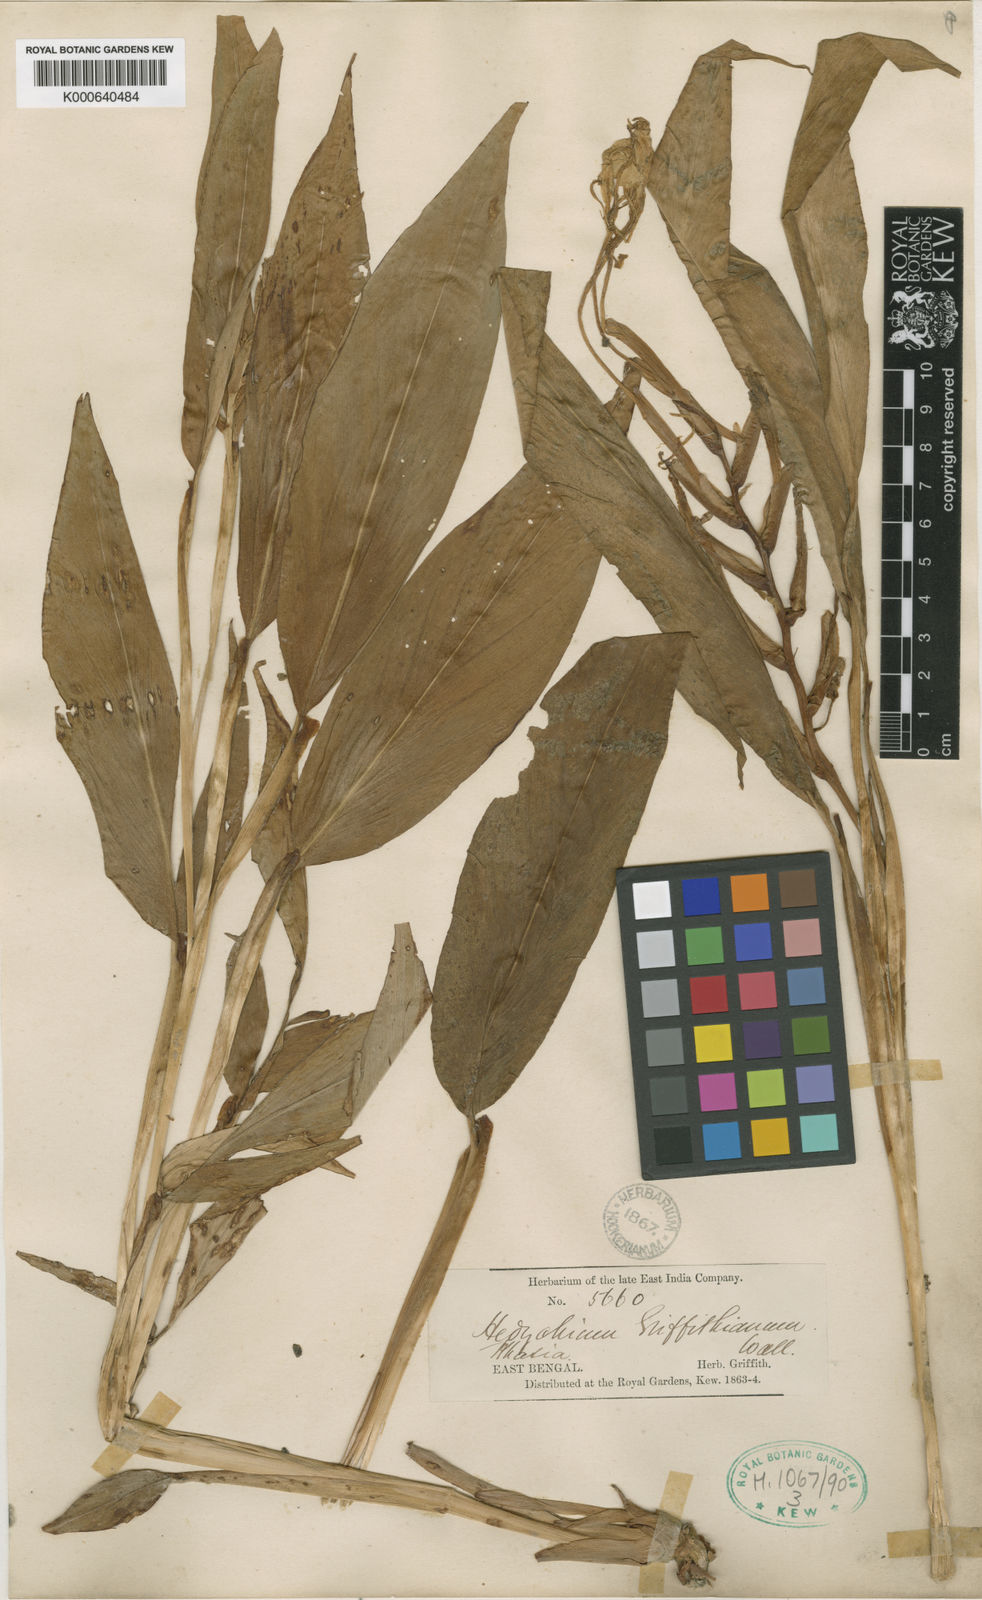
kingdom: Plantae
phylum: Tracheophyta
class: Liliopsida
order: Zingiberales
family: Zingiberaceae
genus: Hedychium
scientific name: Hedychium griffithianum
